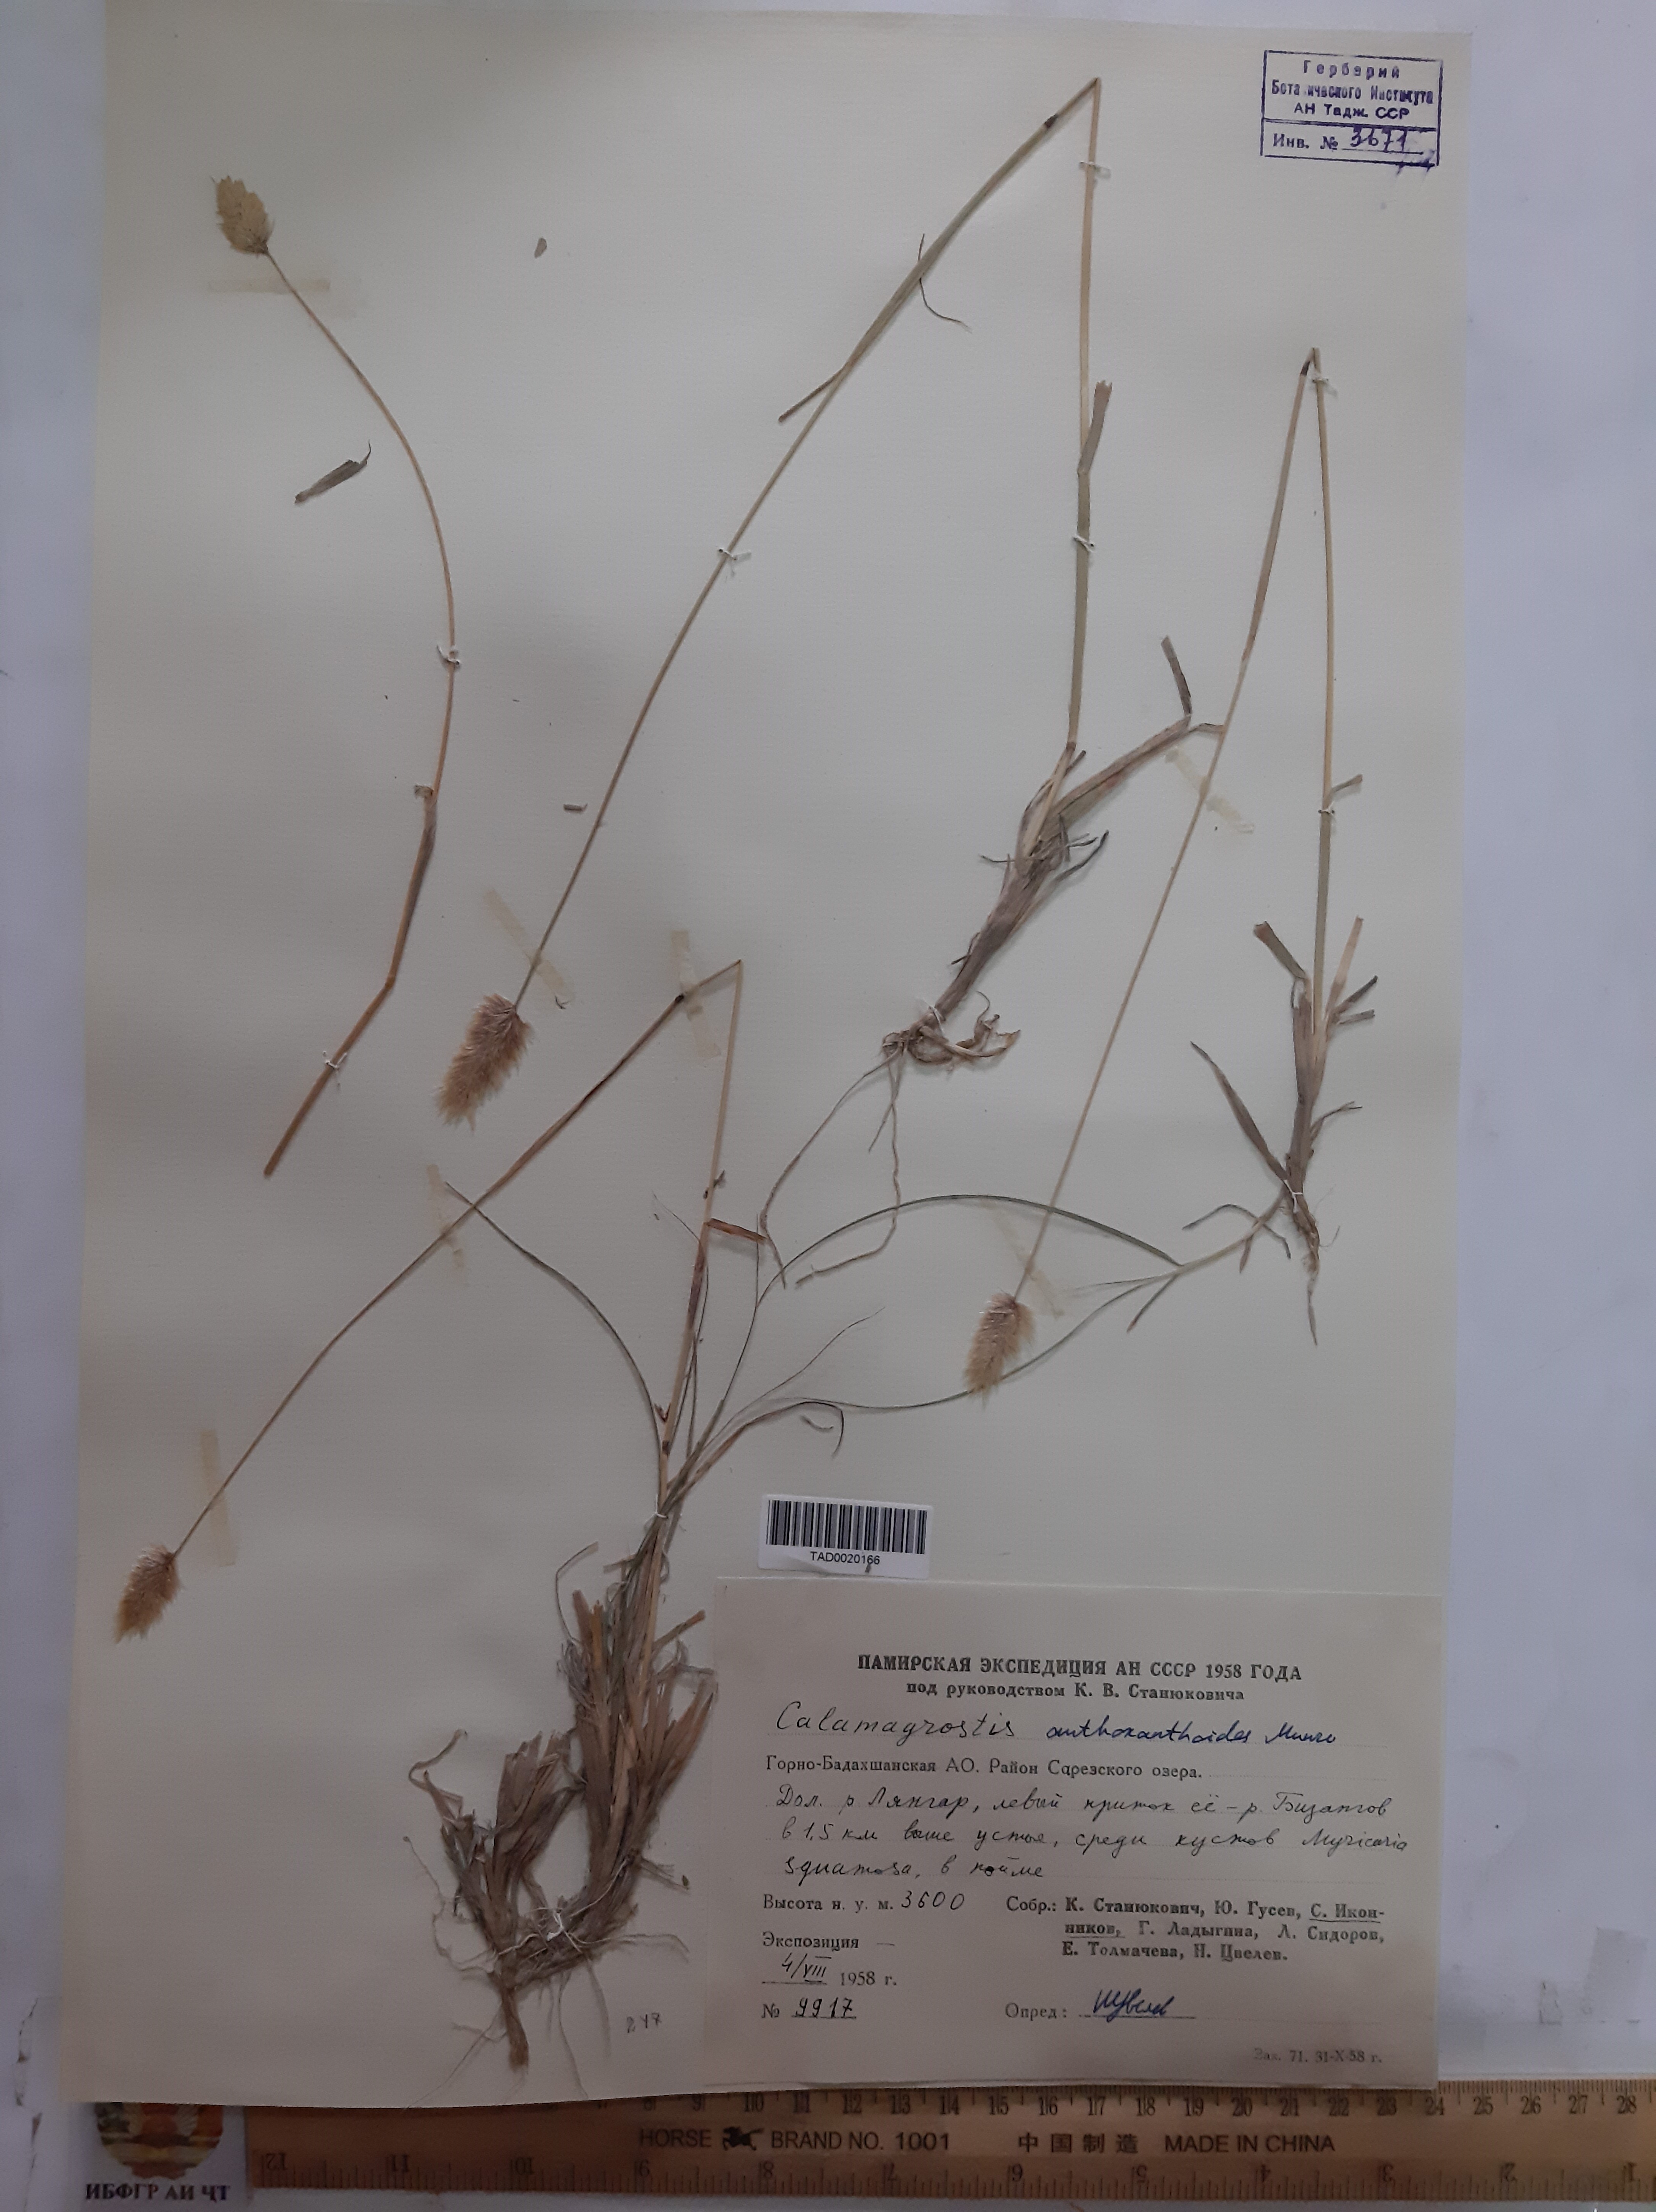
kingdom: Plantae
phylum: Tracheophyta
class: Liliopsida
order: Poales
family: Poaceae
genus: Calamagrostis
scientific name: Calamagrostis anthoxanthoides
